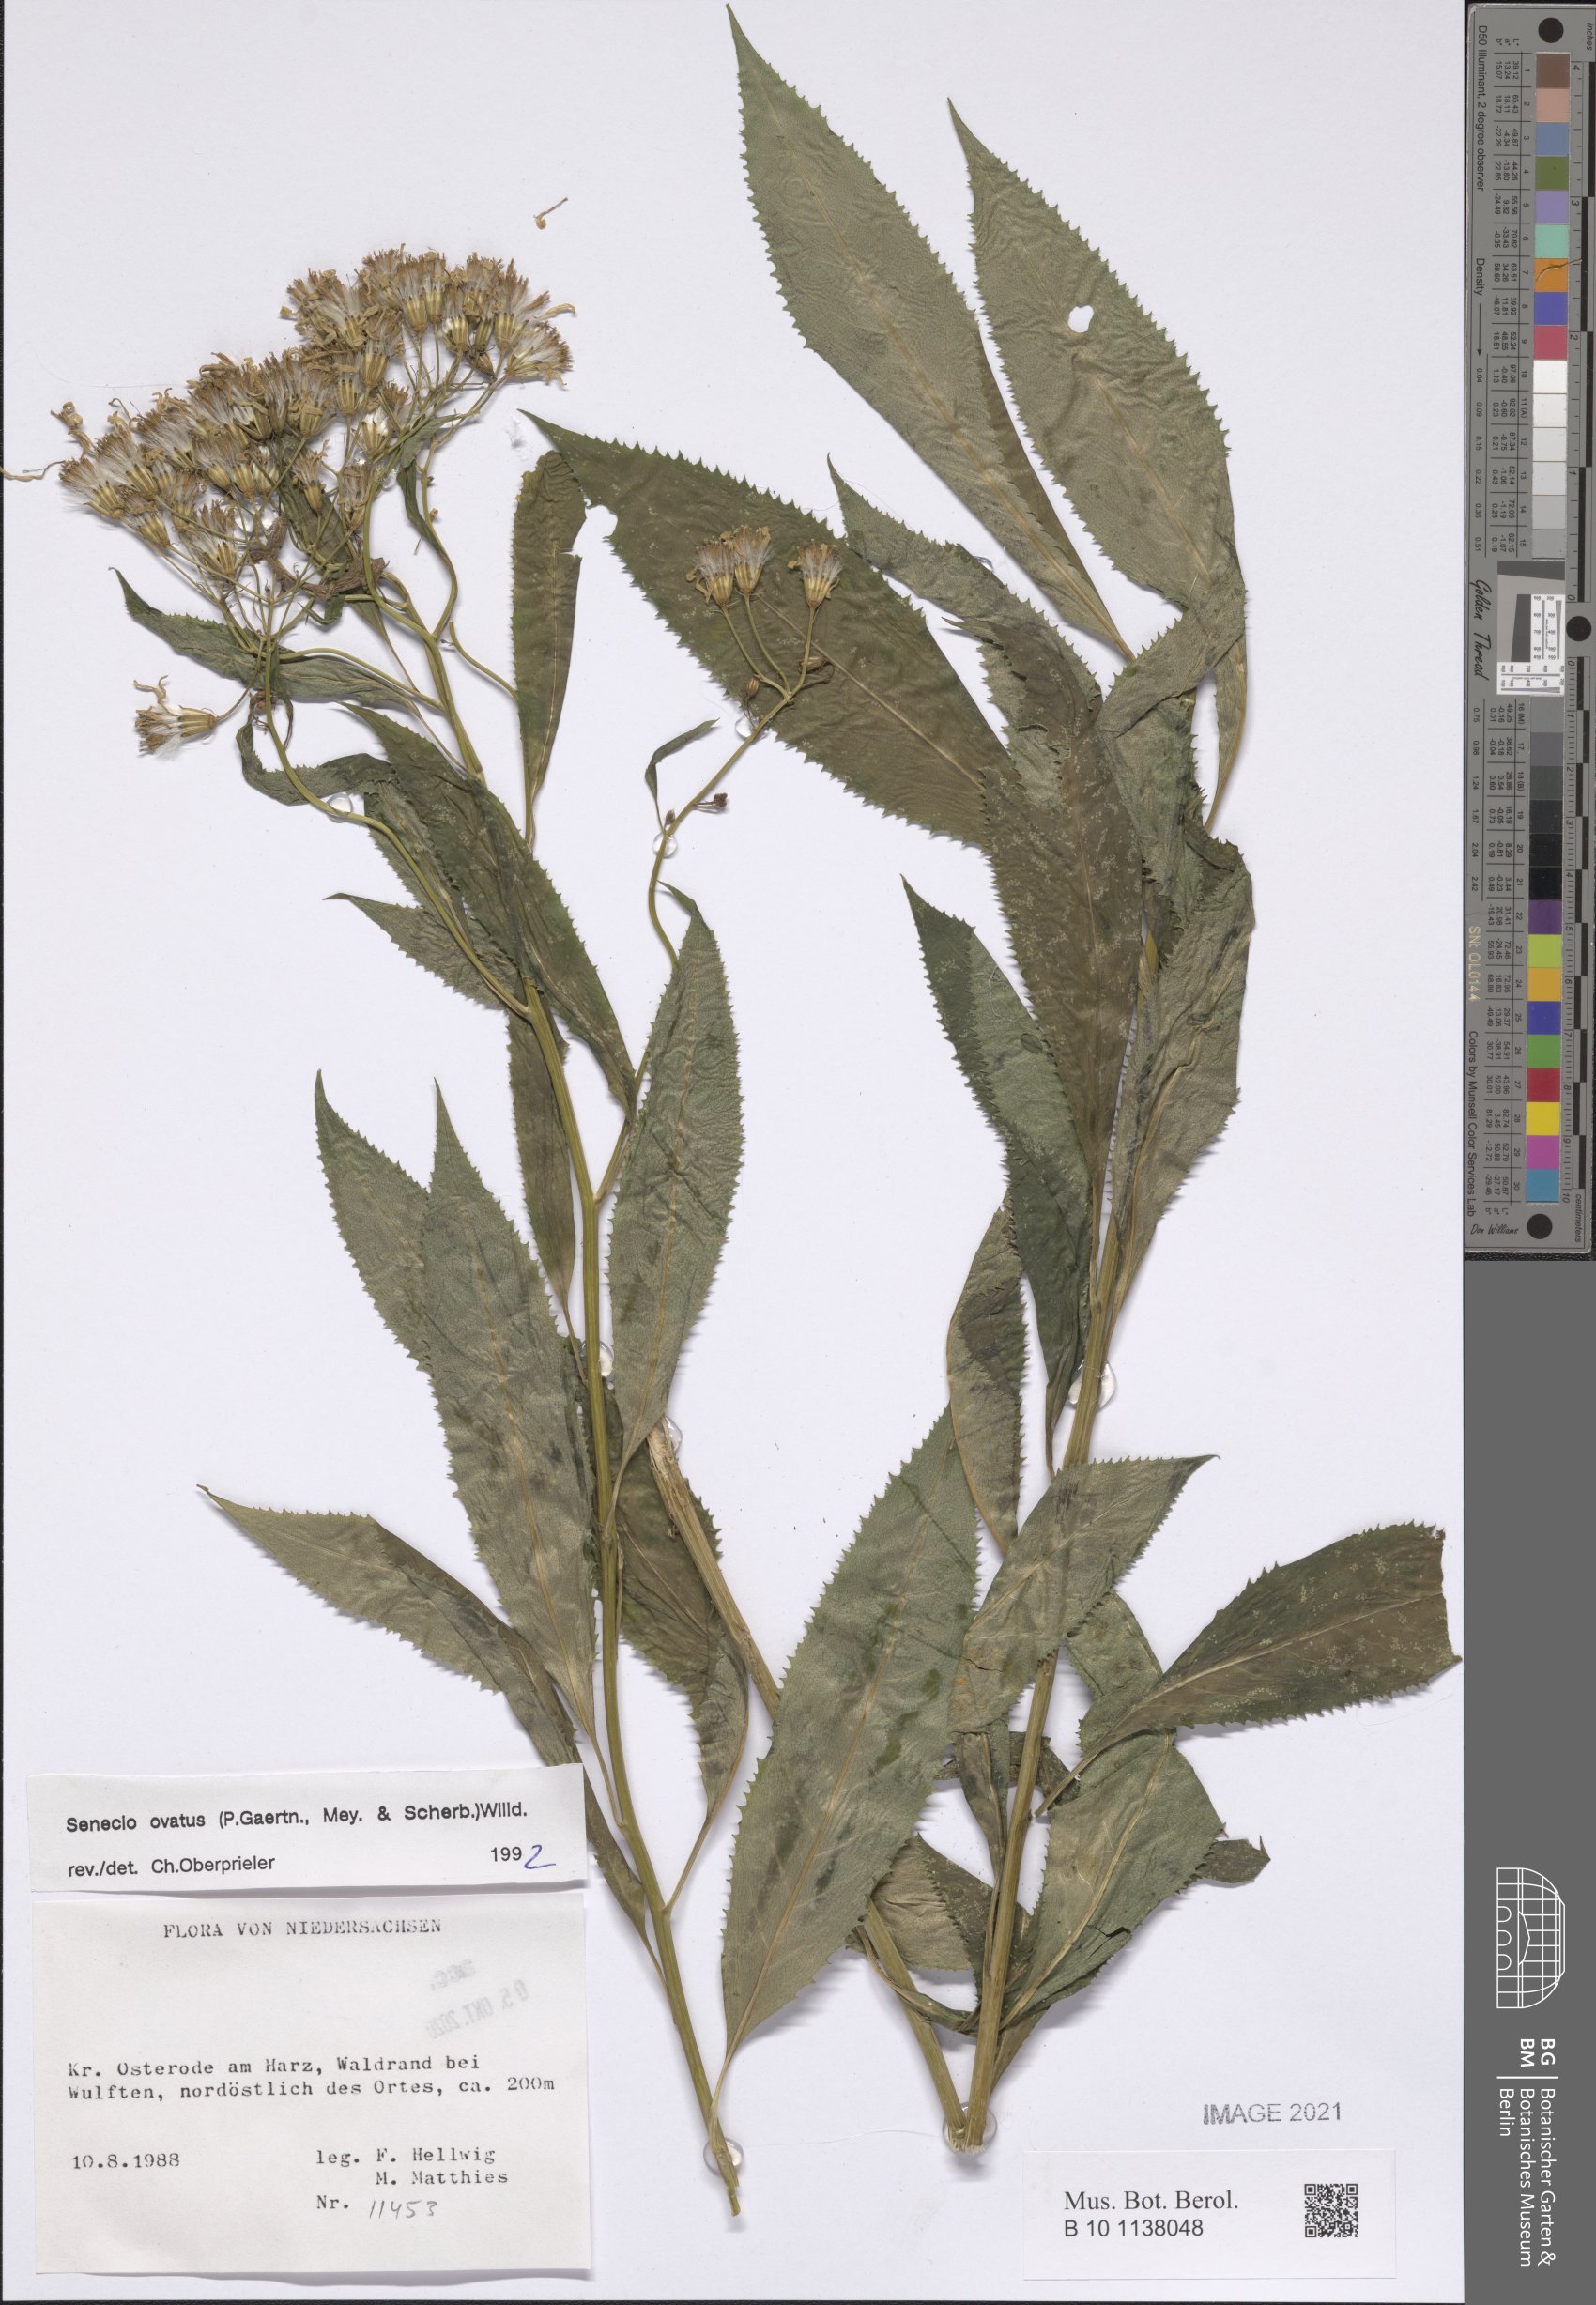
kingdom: Plantae
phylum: Tracheophyta
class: Magnoliopsida
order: Asterales
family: Asteraceae
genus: Senecio
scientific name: Senecio ovatus
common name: Wood ragwort
